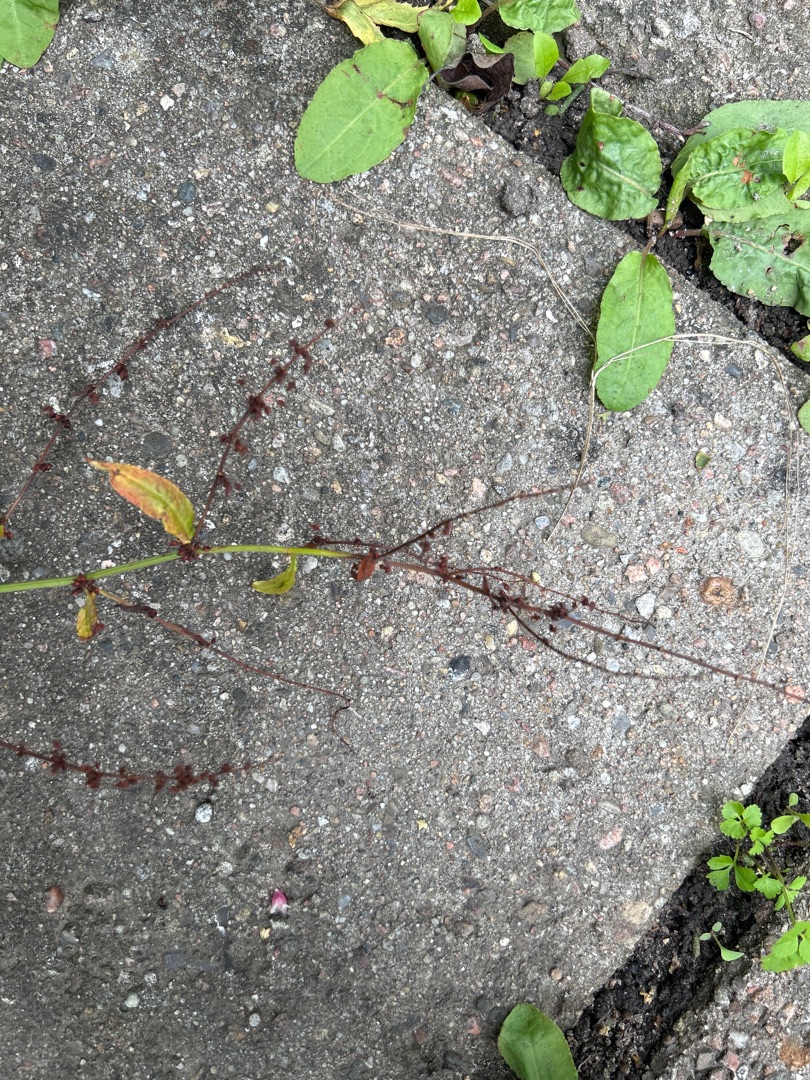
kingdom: Plantae
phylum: Tracheophyta
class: Magnoliopsida
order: Caryophyllales
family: Polygonaceae
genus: Rumex
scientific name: Rumex sanguineus
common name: Skov-skræppe
